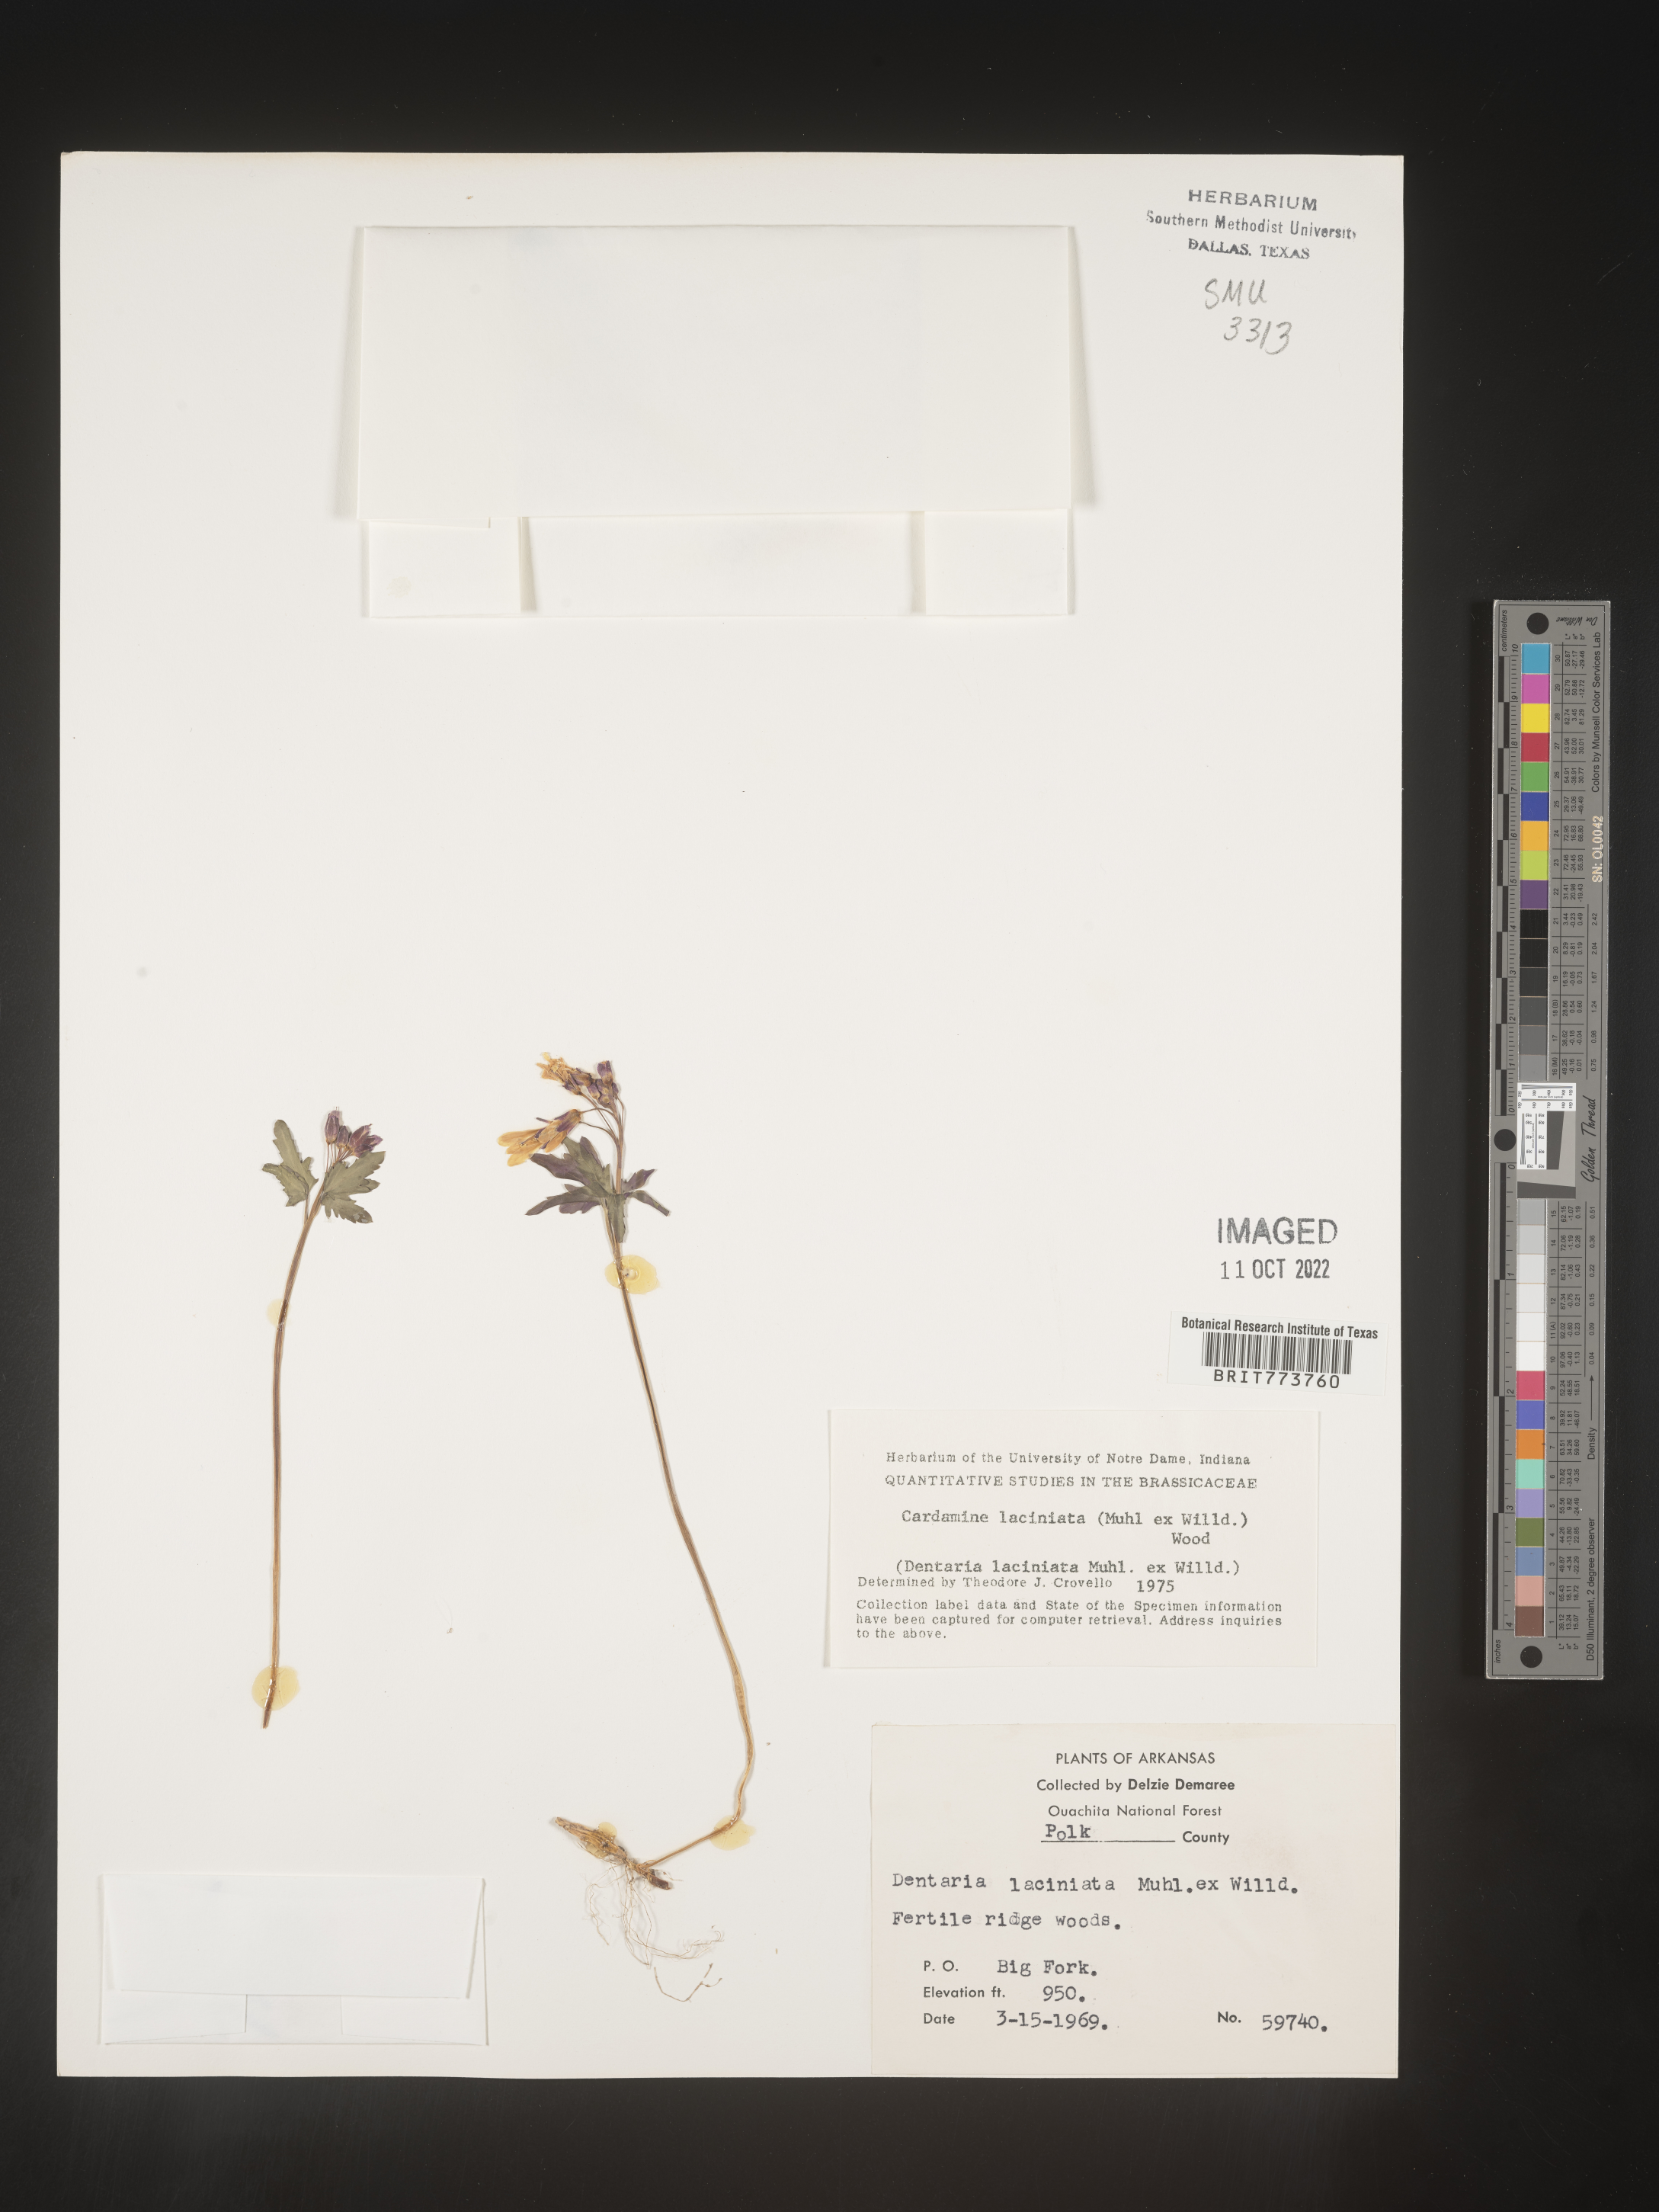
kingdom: Plantae
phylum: Tracheophyta
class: Magnoliopsida
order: Brassicales
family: Brassicaceae
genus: Rorippa
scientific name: Rorippa laciniata
